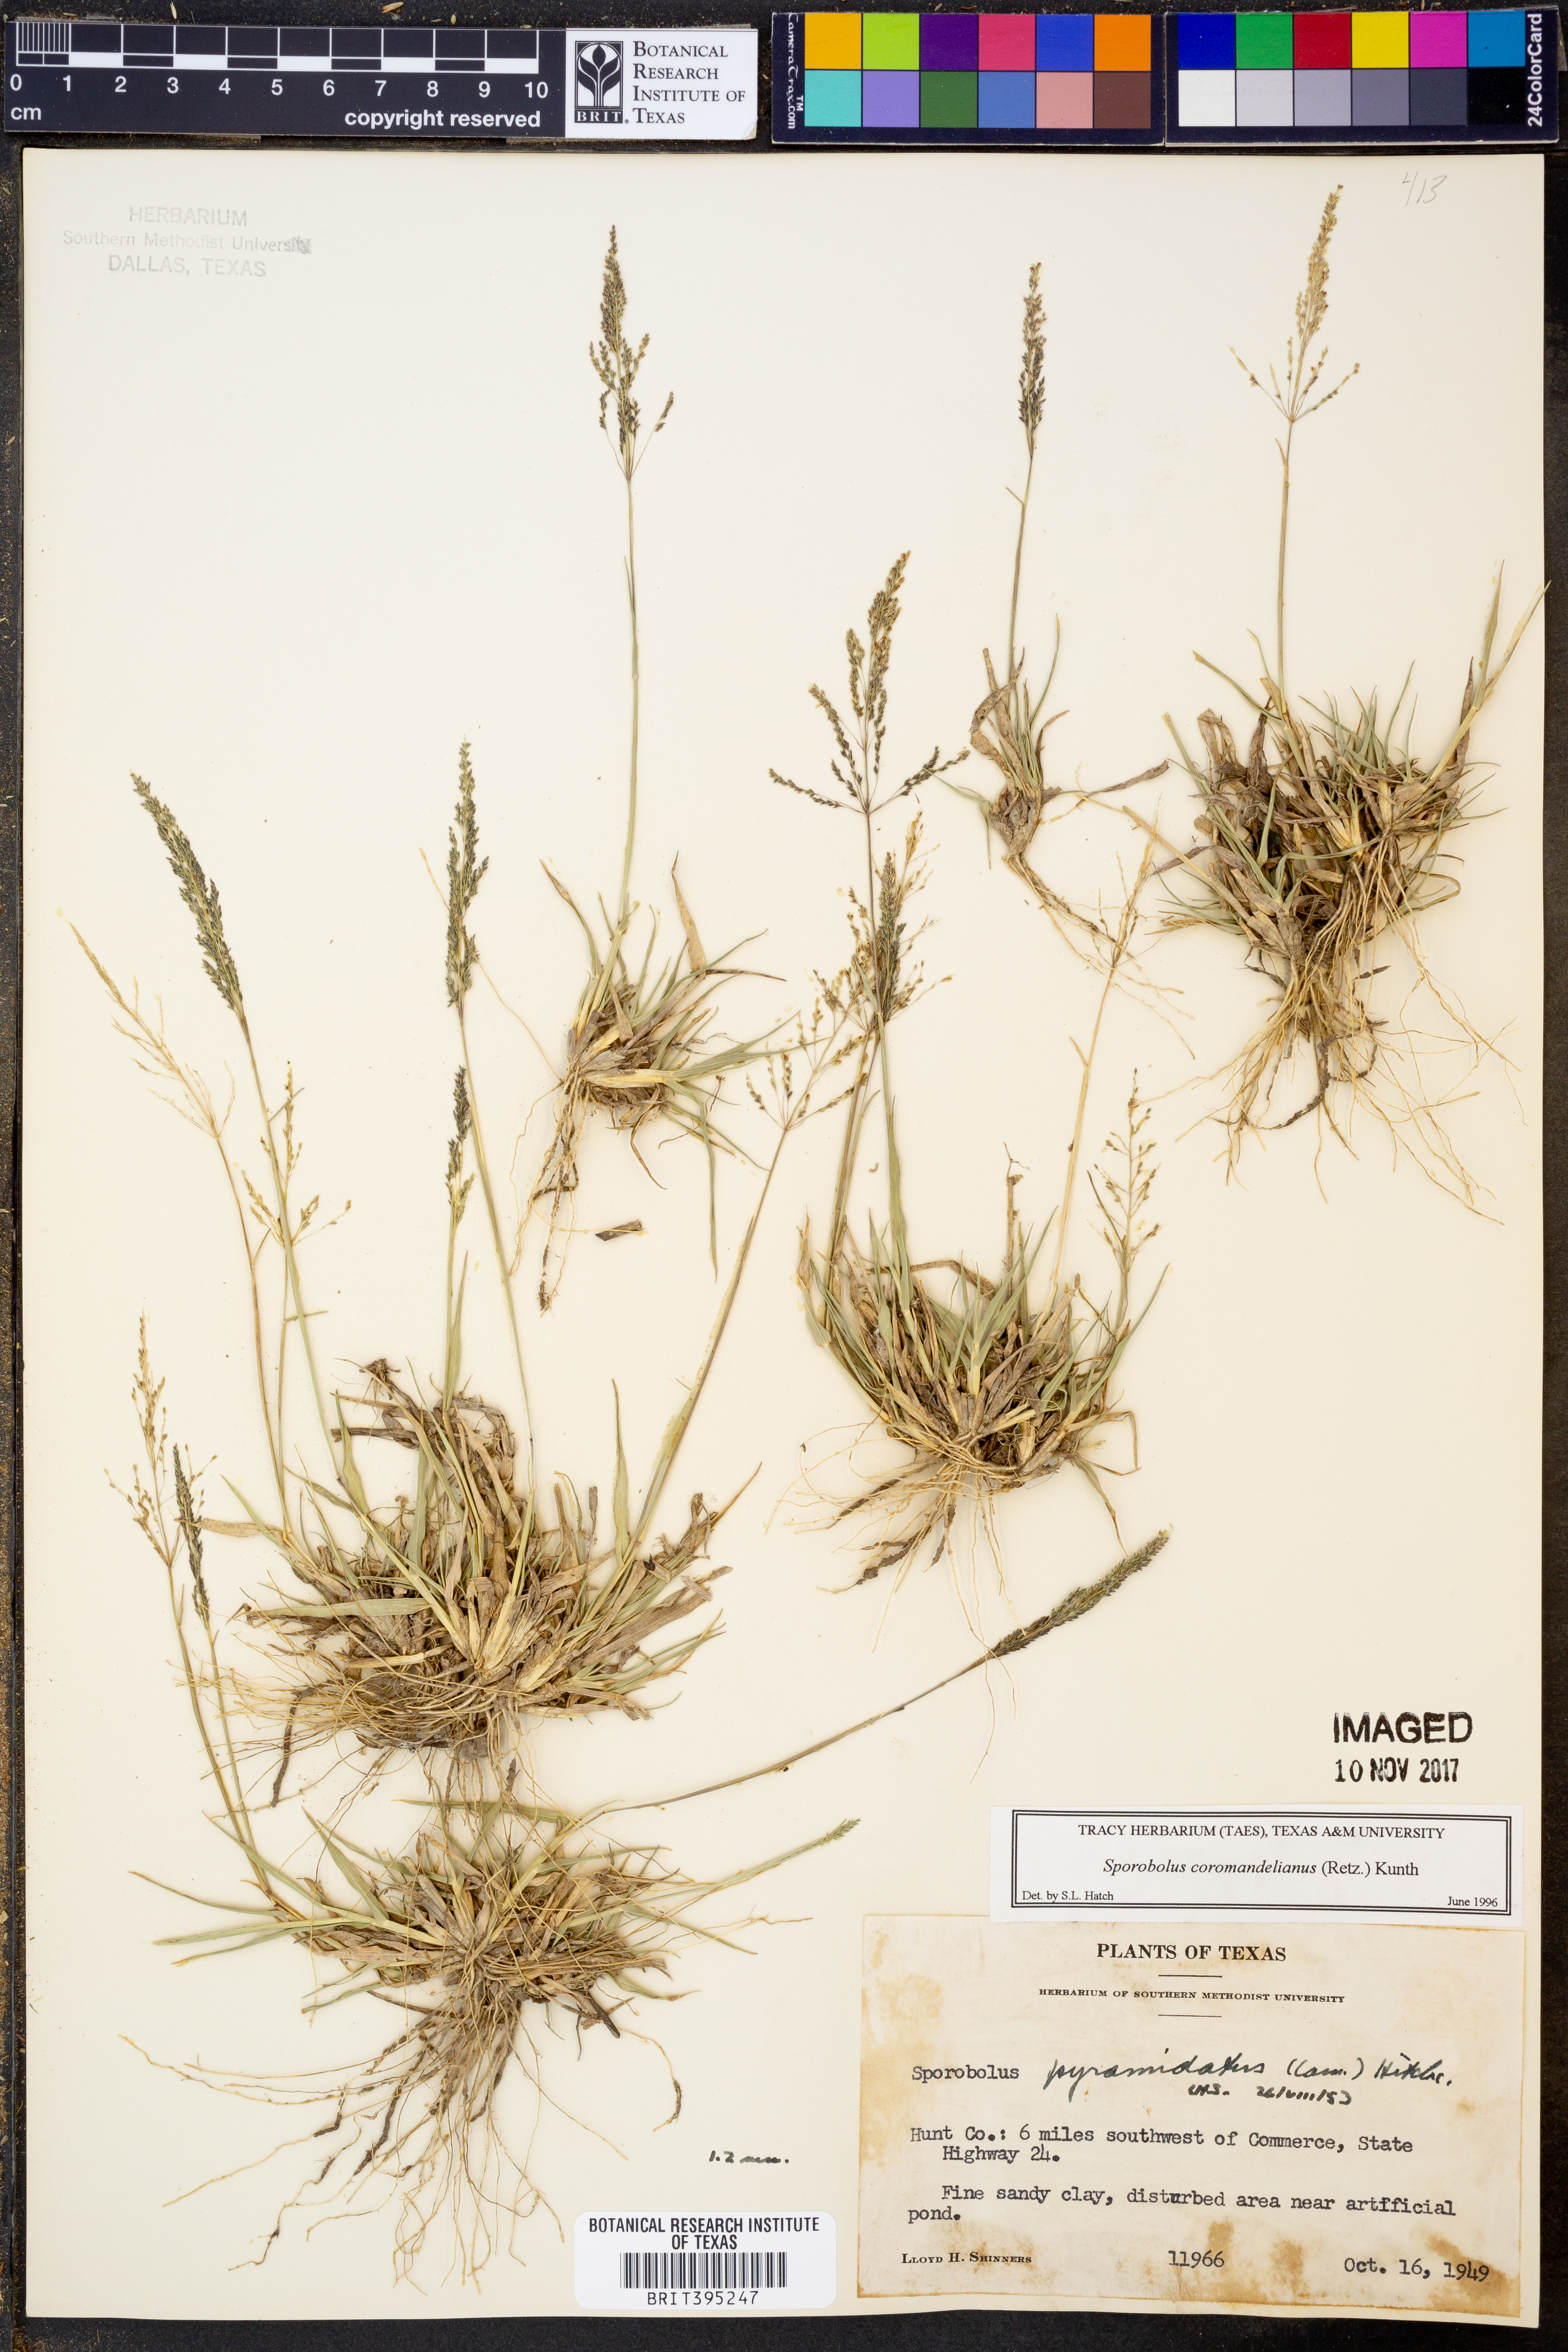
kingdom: Plantae
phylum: Tracheophyta
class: Liliopsida
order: Poales
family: Poaceae
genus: Sporobolus
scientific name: Sporobolus coromandelianus
